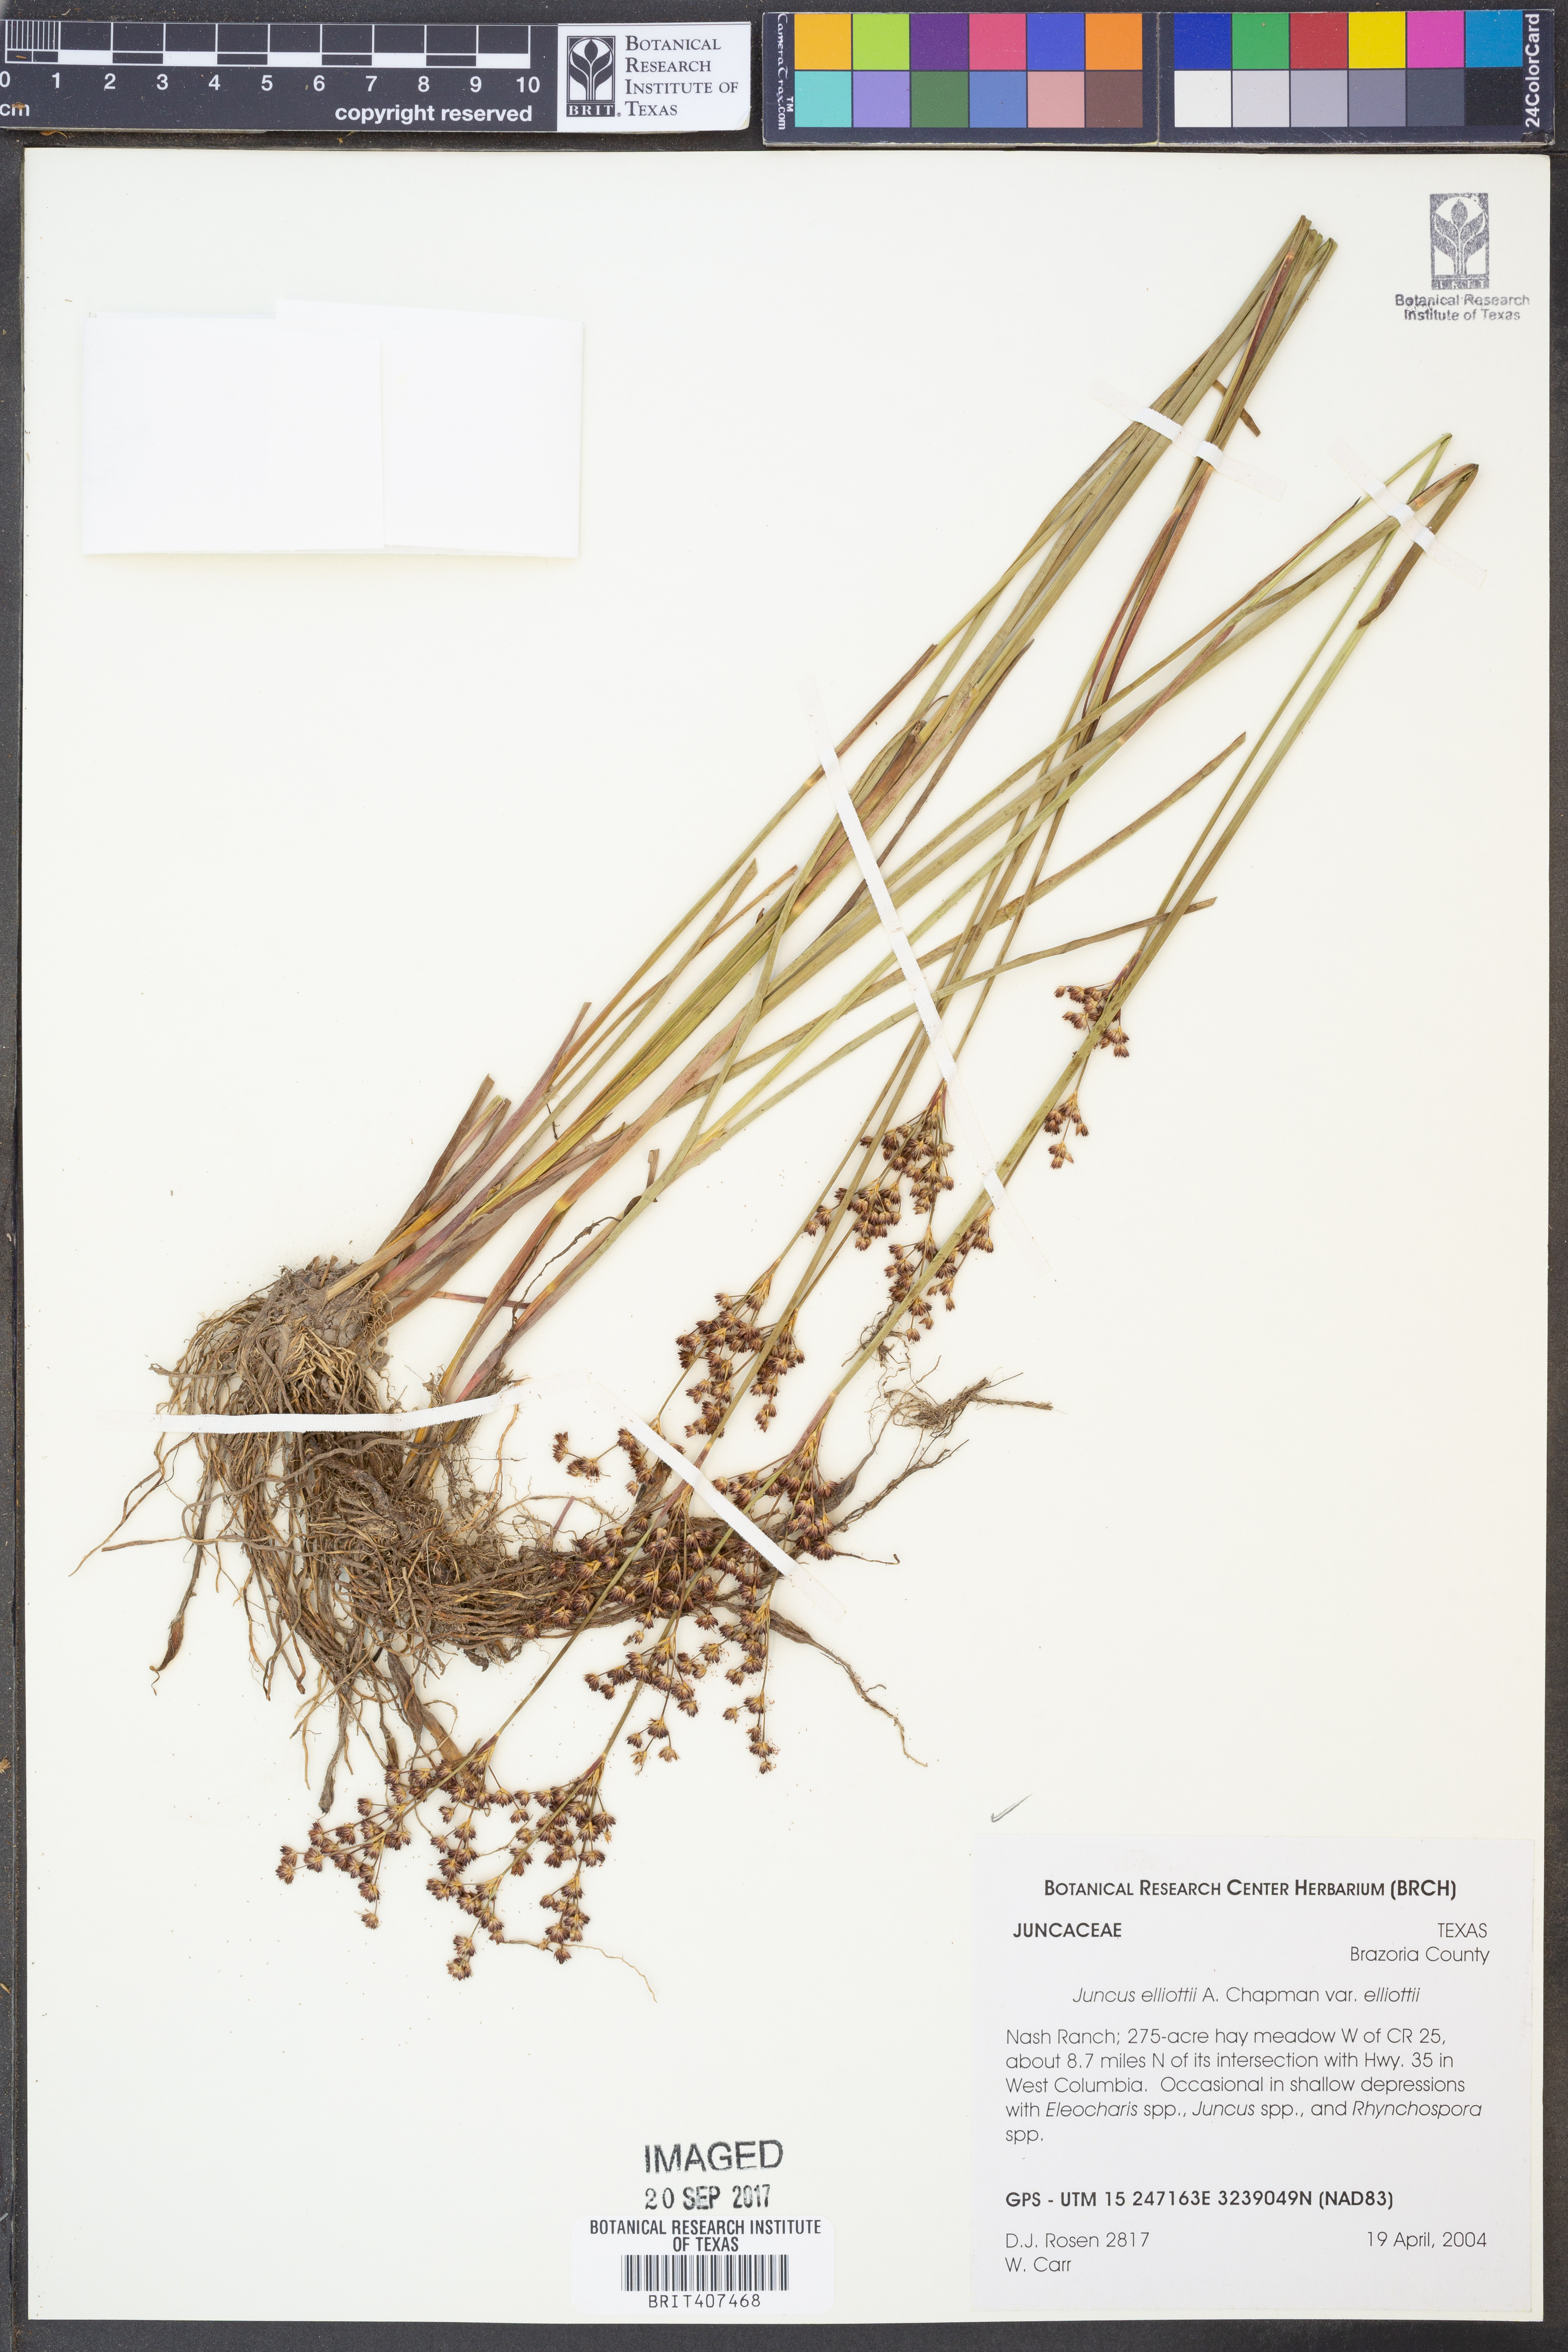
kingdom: Plantae
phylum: Tracheophyta
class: Liliopsida
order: Poales
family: Juncaceae
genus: Juncus
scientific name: Juncus elliottii
